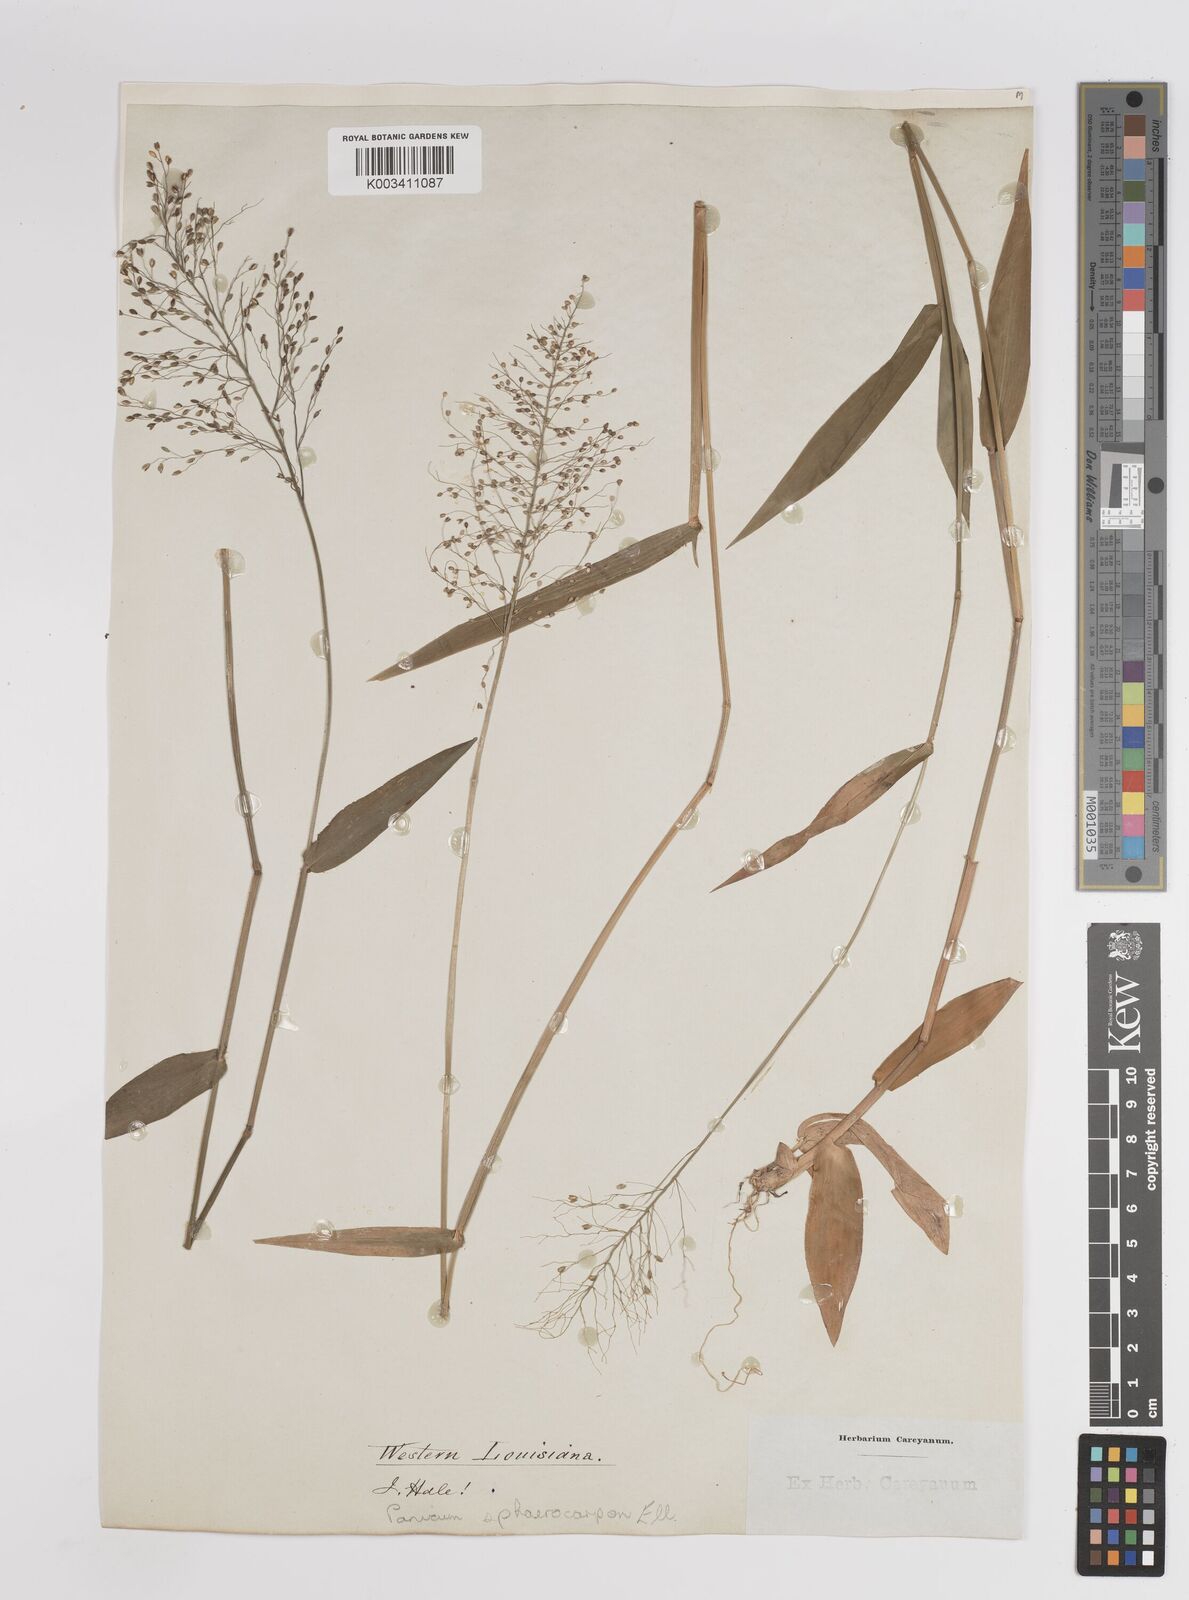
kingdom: Plantae
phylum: Tracheophyta
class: Liliopsida
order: Poales
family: Poaceae
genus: Dichanthelium
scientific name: Dichanthelium sphaerocarpon
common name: Round-fruited panicgrass
